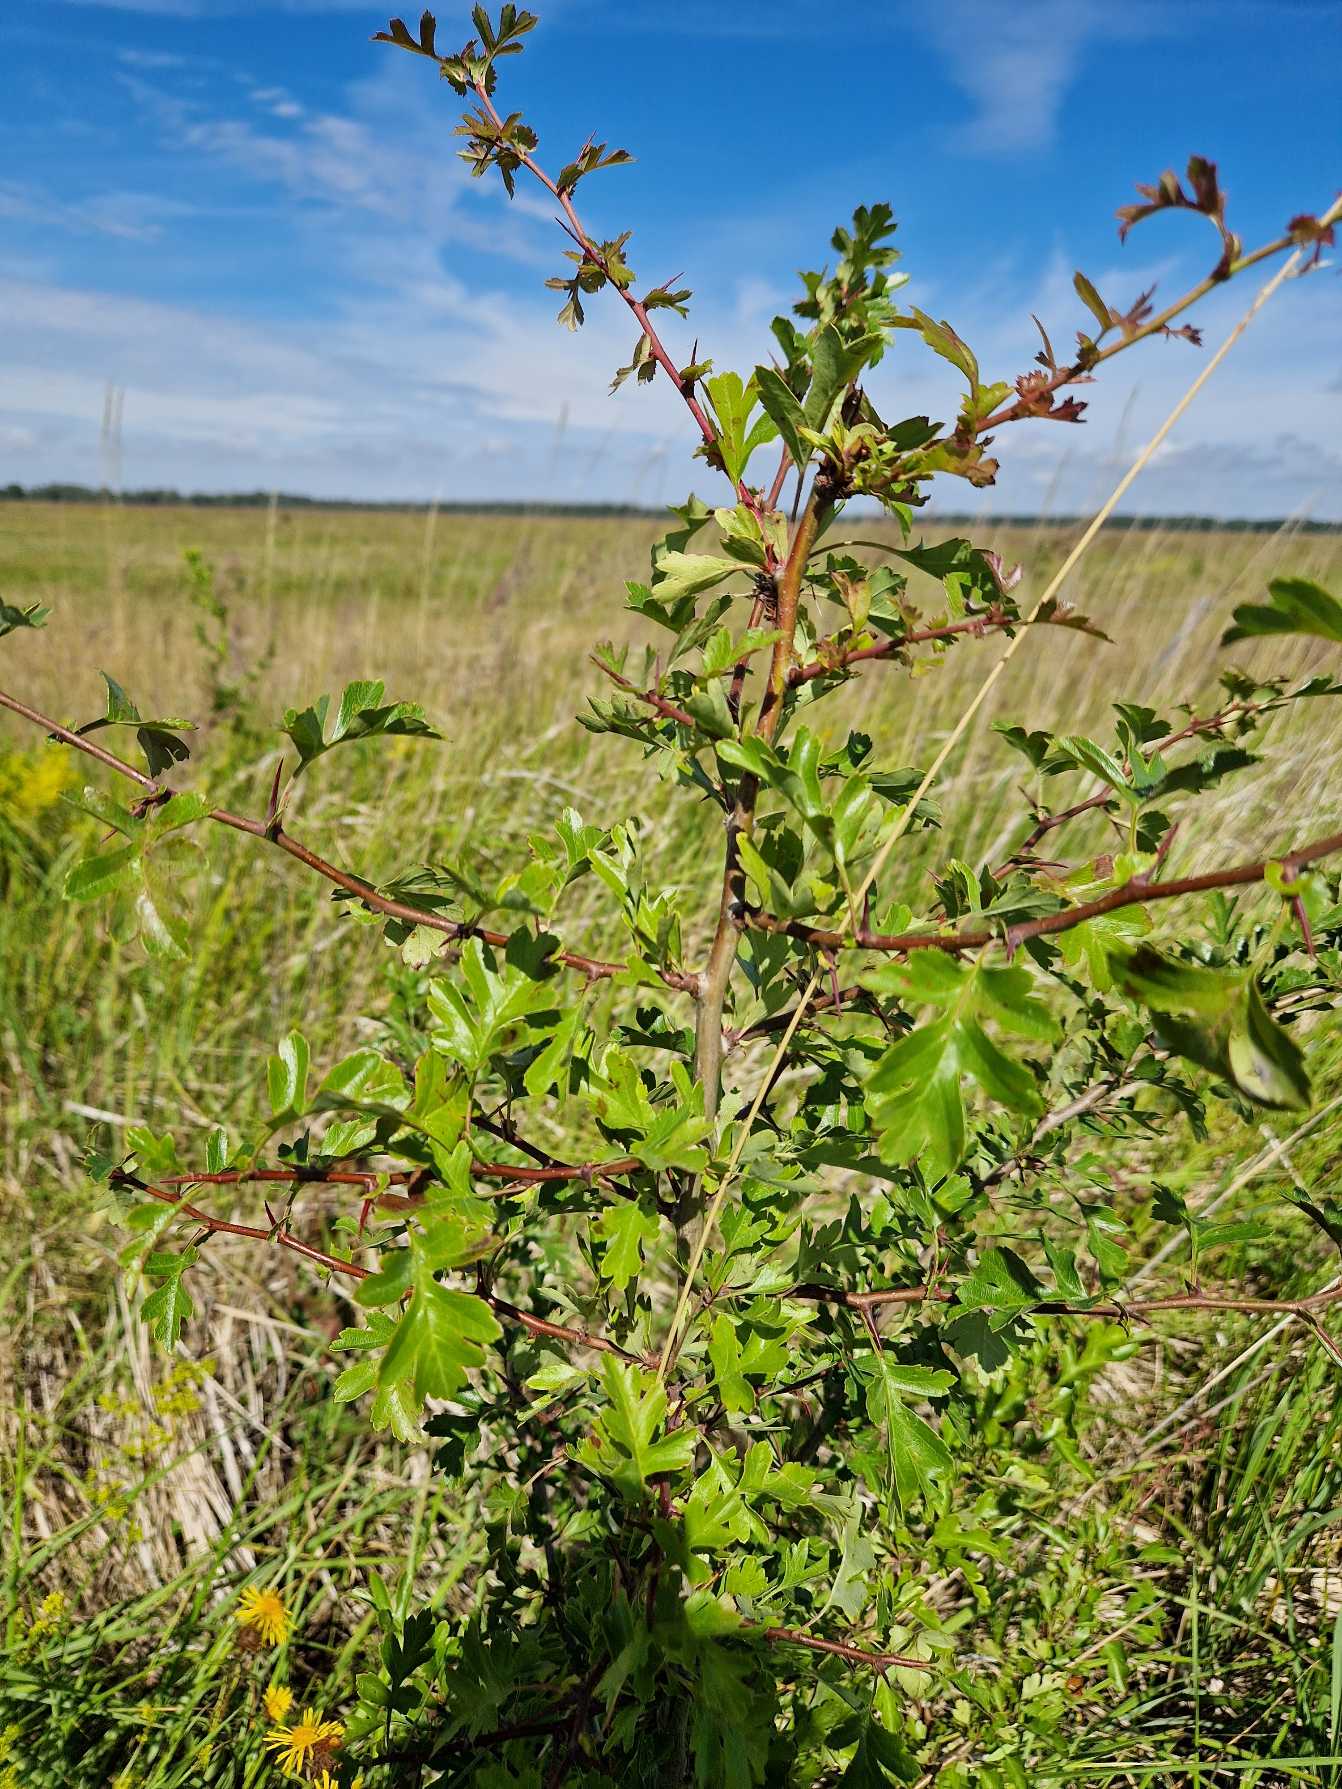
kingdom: Plantae
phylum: Tracheophyta
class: Magnoliopsida
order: Rosales
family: Rosaceae
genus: Crataegus
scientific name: Crataegus monogyna
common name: Engriflet hvidtjørn
